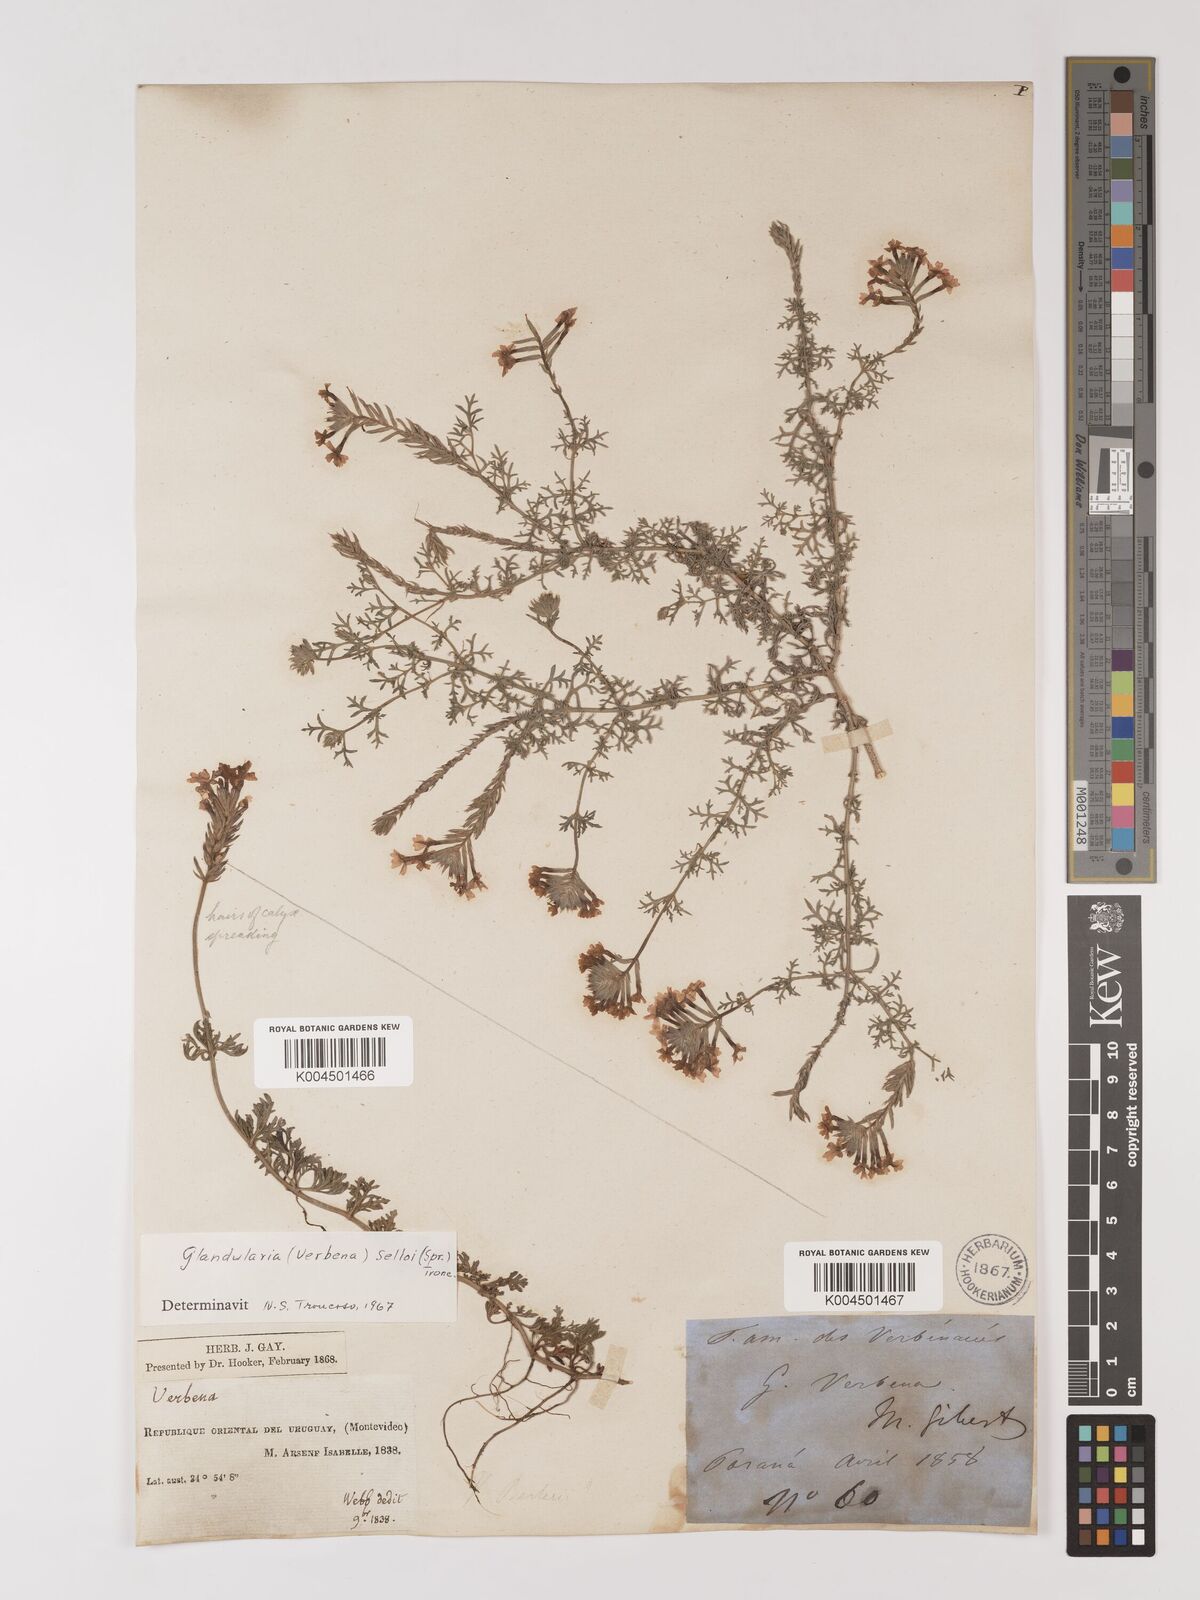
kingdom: Plantae
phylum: Tracheophyta
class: Magnoliopsida
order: Lamiales
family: Verbenaceae
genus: Verbena
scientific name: Verbena tenera
